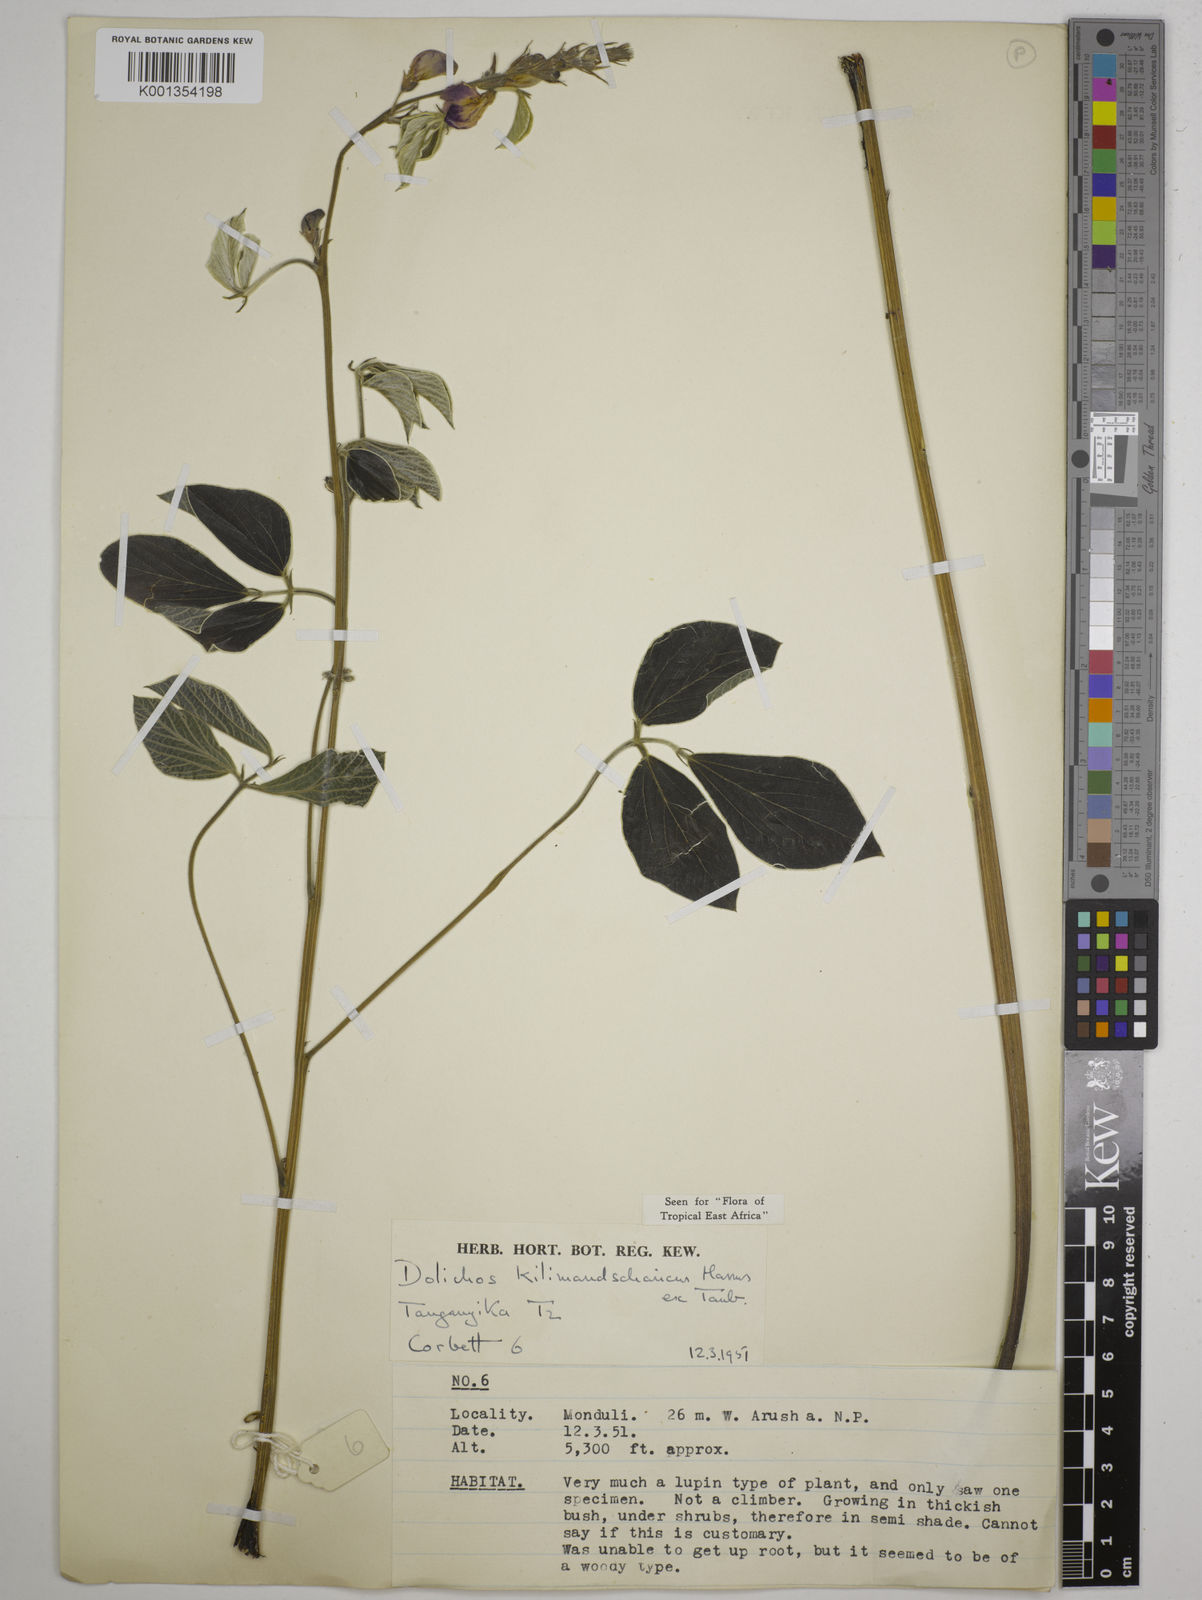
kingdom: Plantae
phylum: Tracheophyta
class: Magnoliopsida
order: Fabales
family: Fabaceae
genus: Dolichos
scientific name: Dolichos kilimandscharicus
